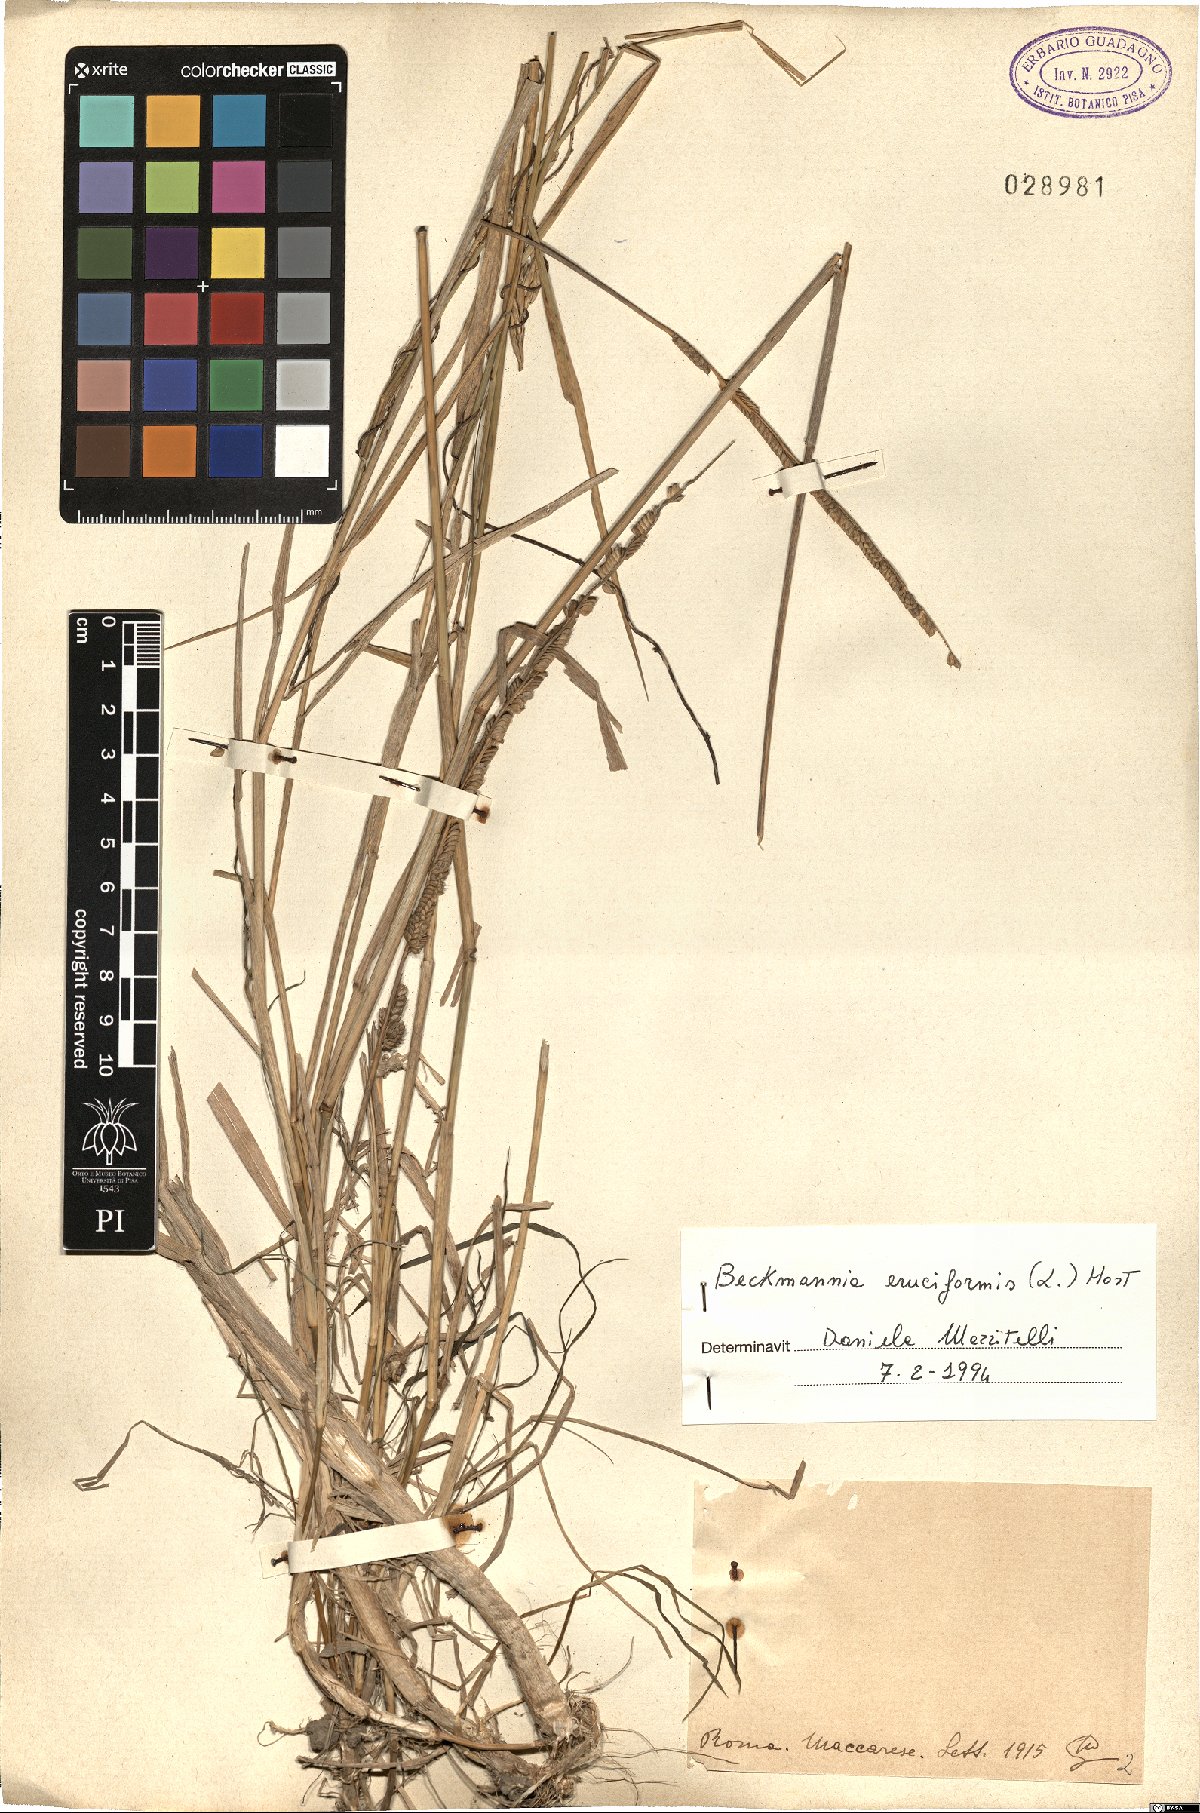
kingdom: Plantae
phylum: Tracheophyta
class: Liliopsida
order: Poales
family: Poaceae
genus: Beckmannia
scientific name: Beckmannia eruciformis
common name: European slough-grass
